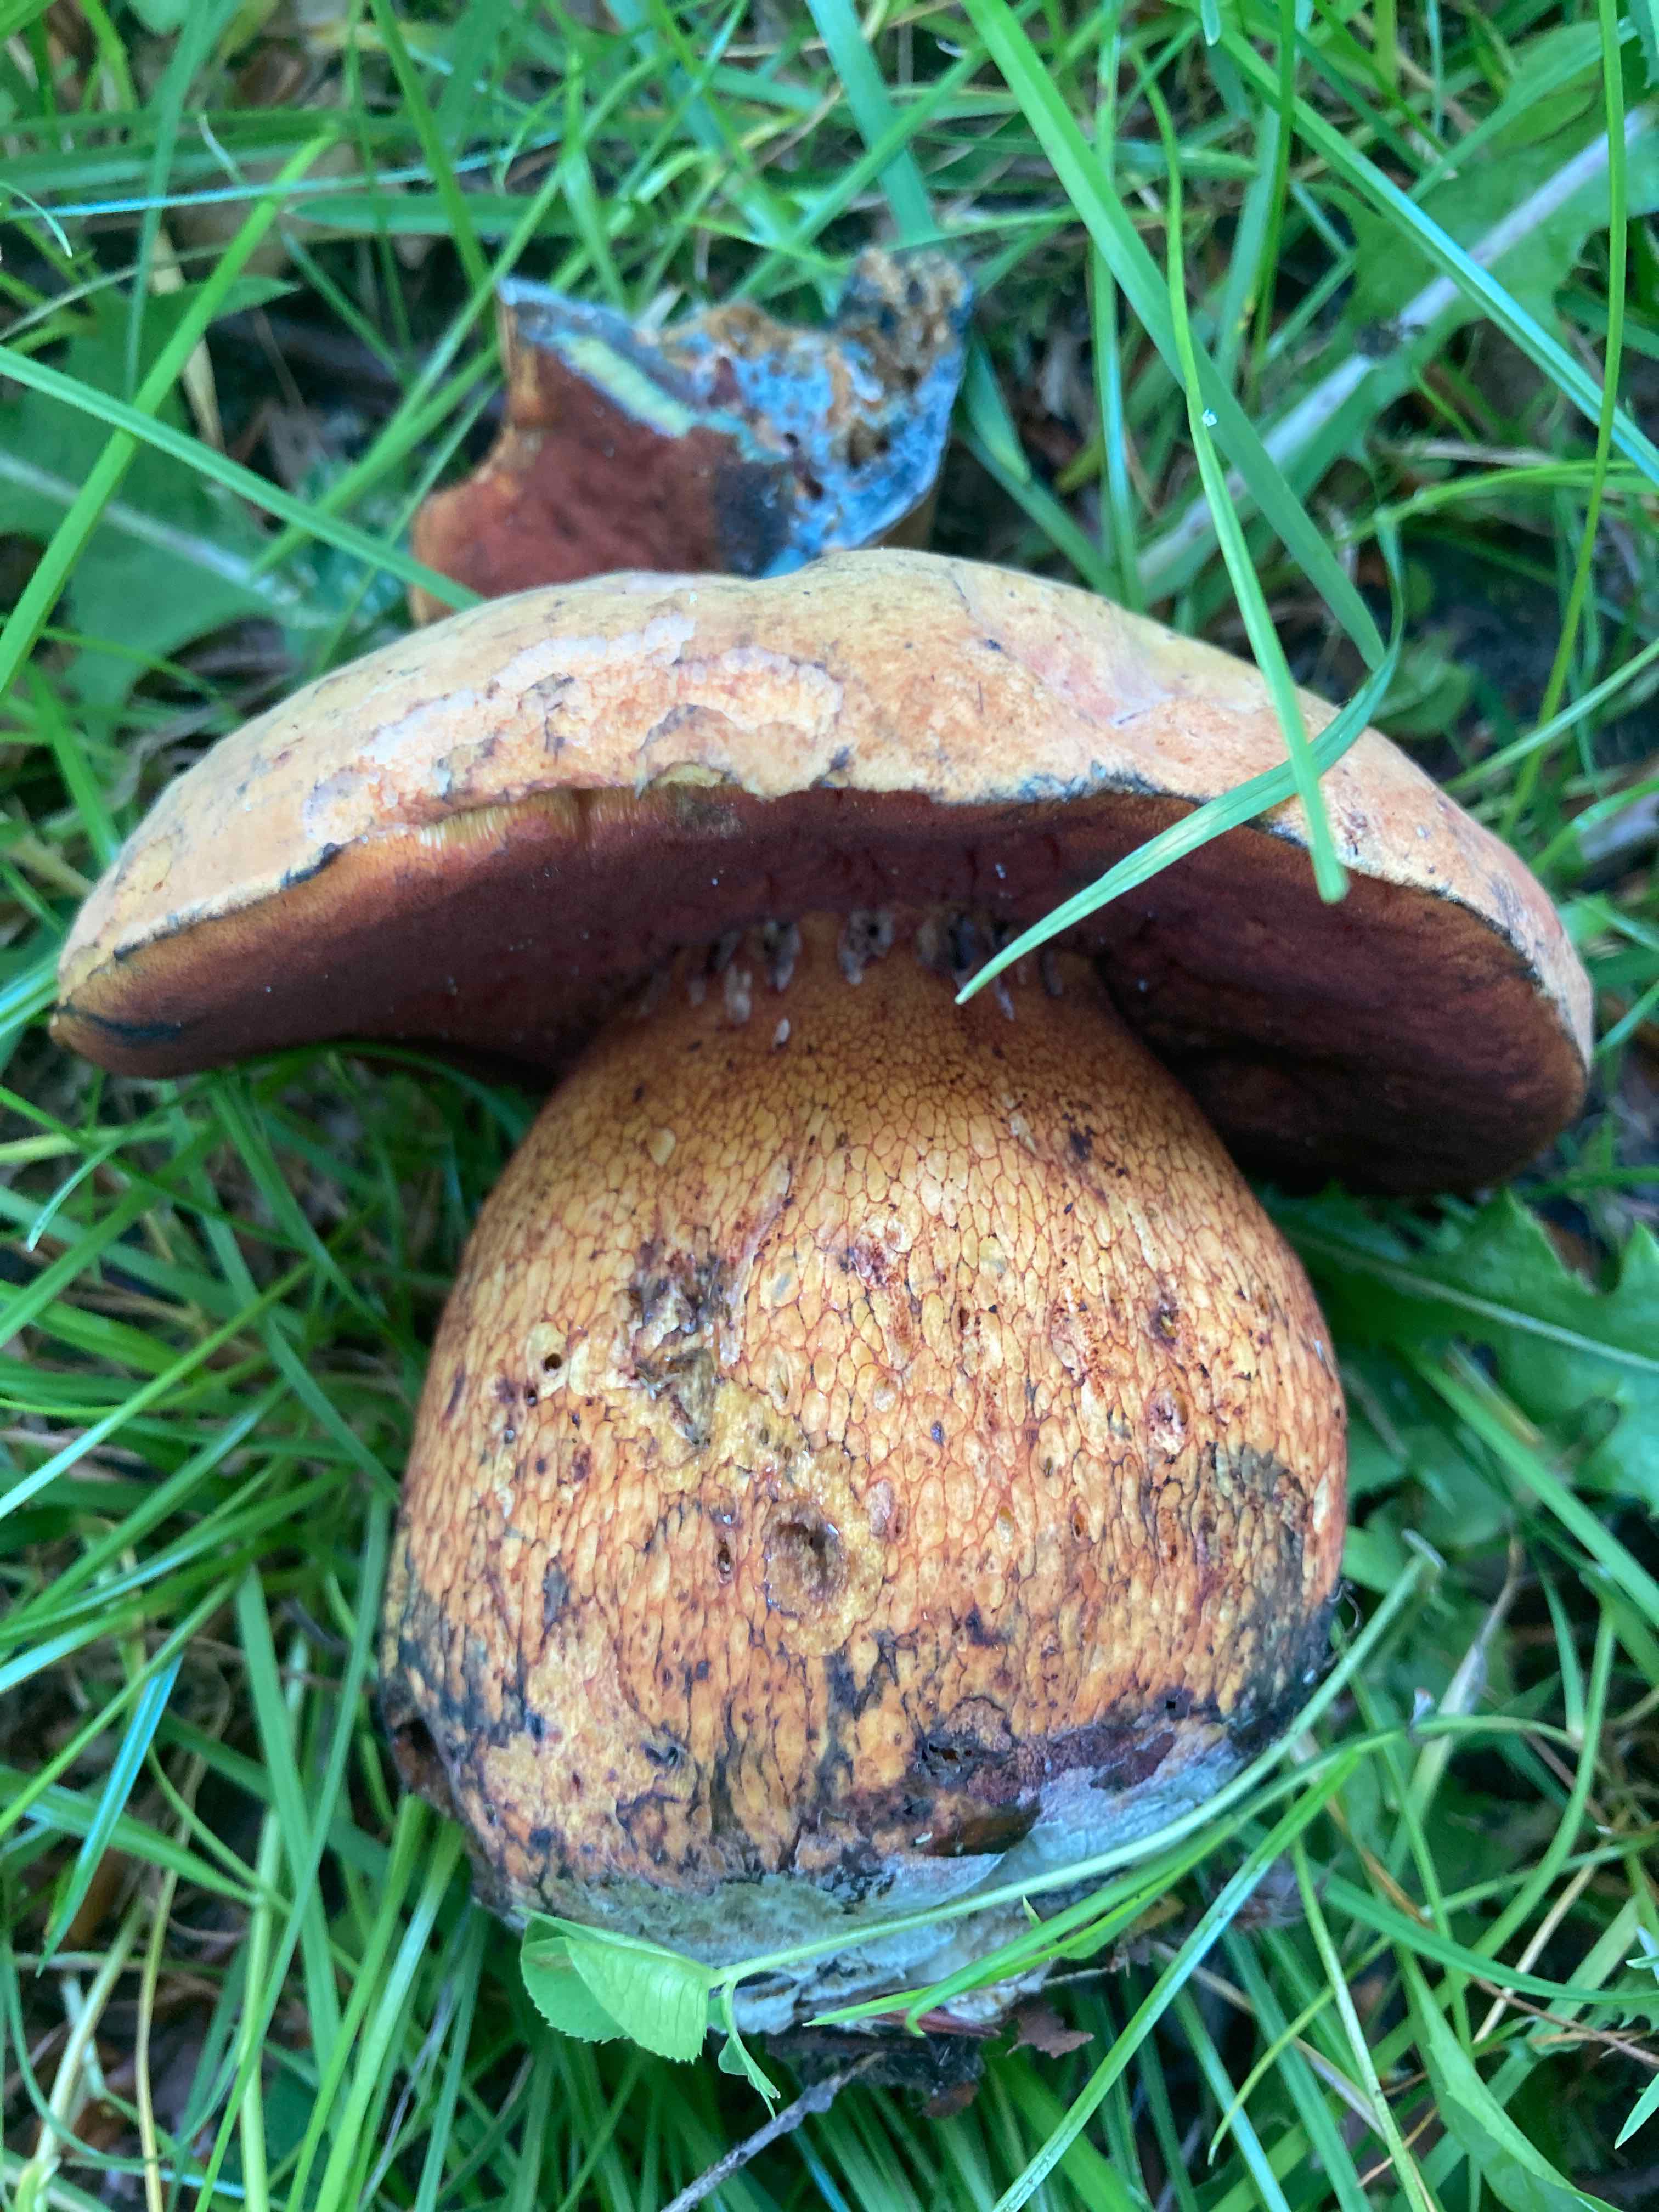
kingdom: Fungi
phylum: Basidiomycota
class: Agaricomycetes
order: Boletales
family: Boletaceae
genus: Suillellus
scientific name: Suillellus luridus
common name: netstokket indigorørhat
